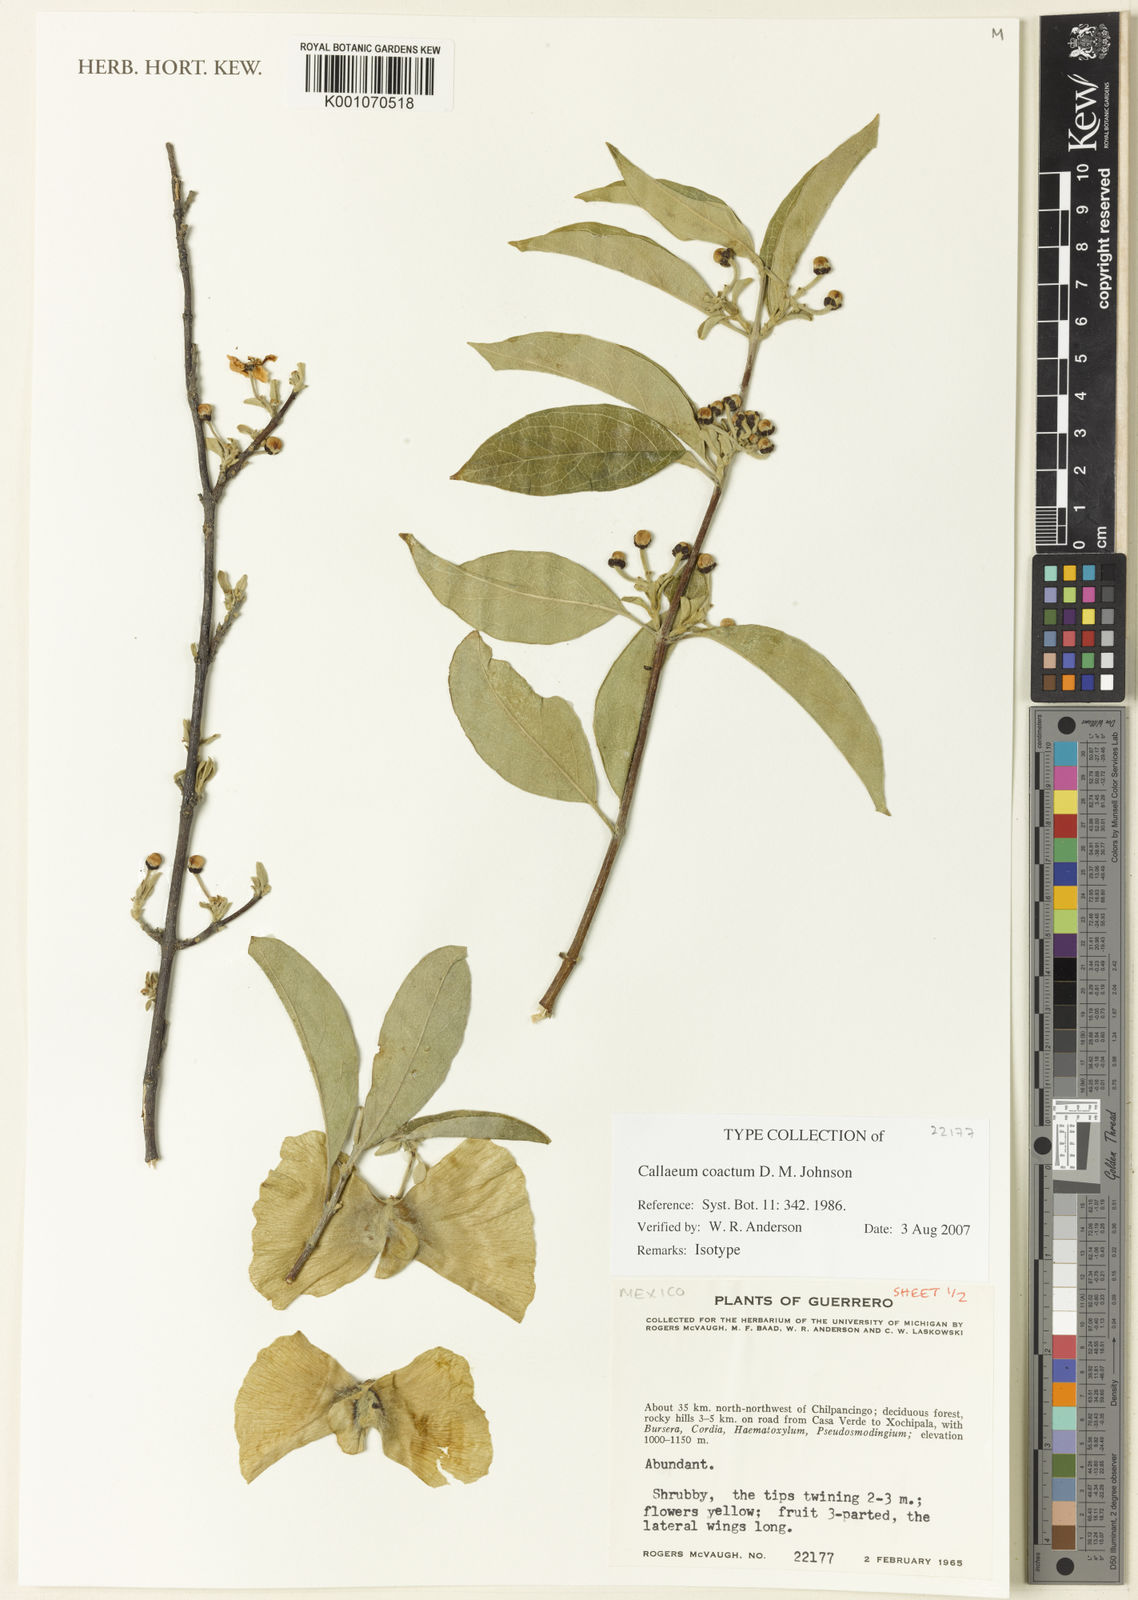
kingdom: Plantae
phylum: Tracheophyta
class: Magnoliopsida
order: Malpighiales
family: Malpighiaceae
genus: Callaeum
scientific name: Callaeum coactum
